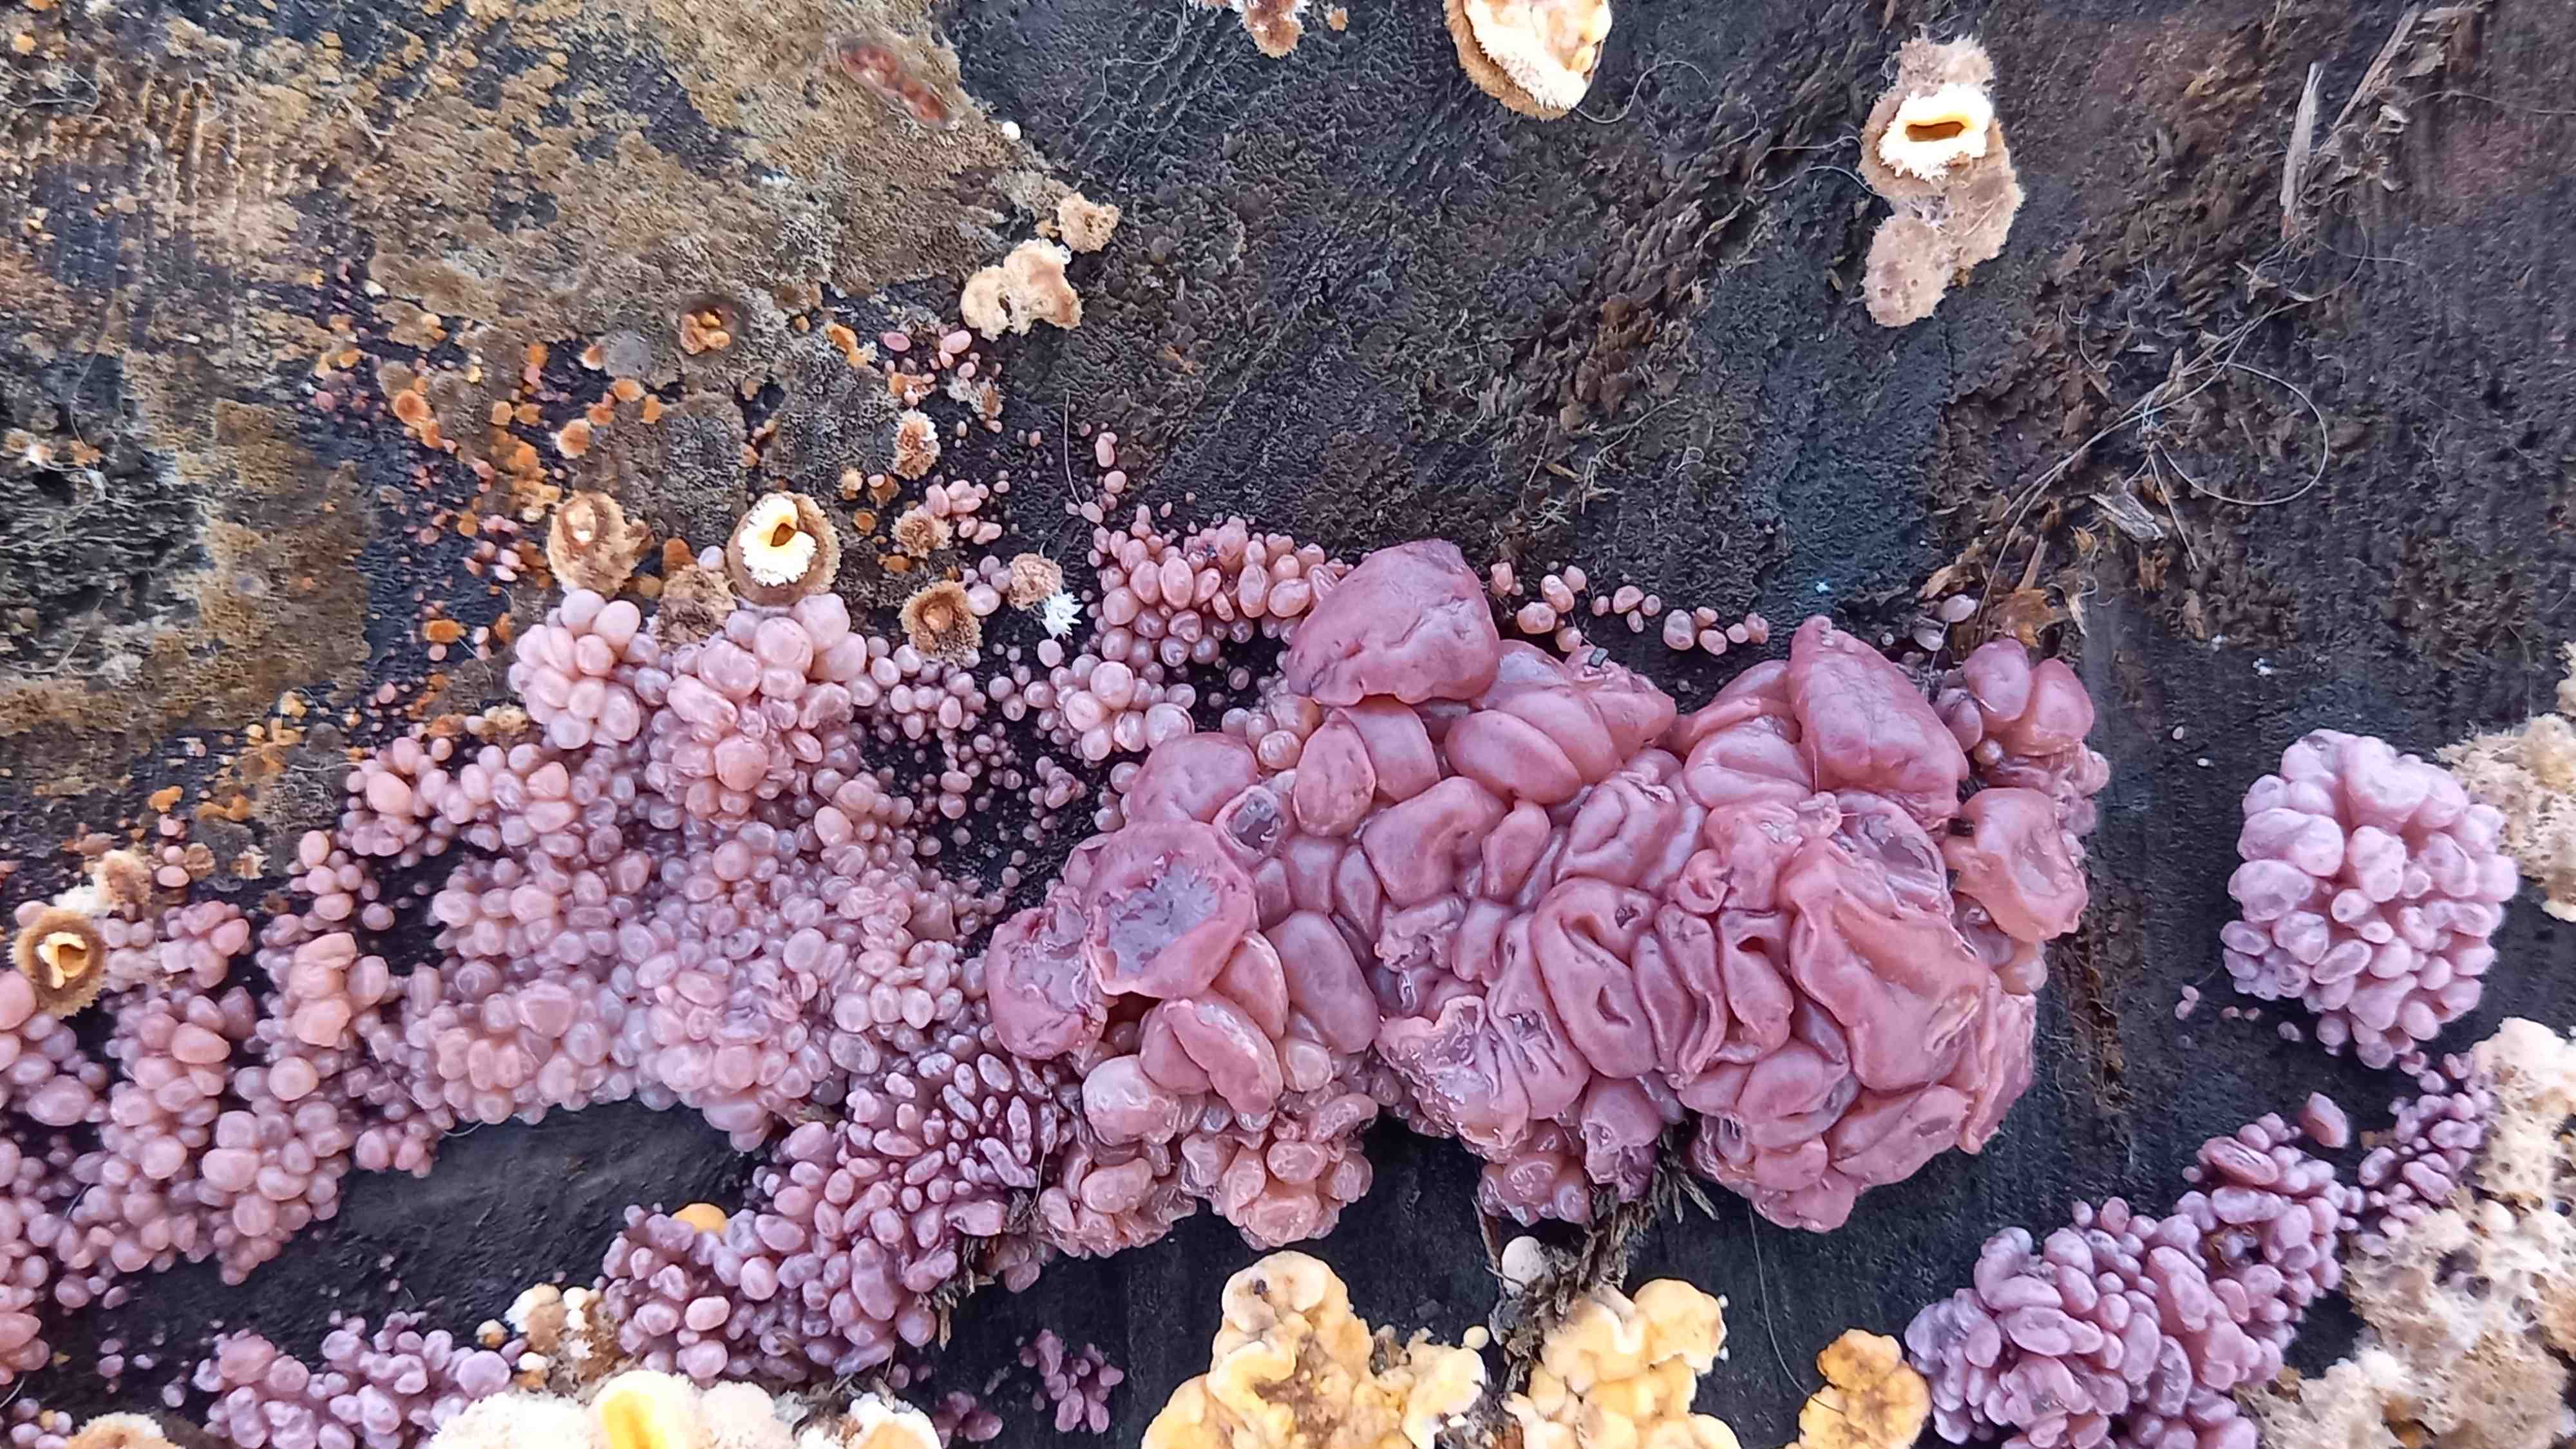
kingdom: Fungi
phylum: Ascomycota
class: Leotiomycetes
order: Helotiales
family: Gelatinodiscaceae
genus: Ascocoryne
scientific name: Ascocoryne sarcoides
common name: rødlilla sejskive
